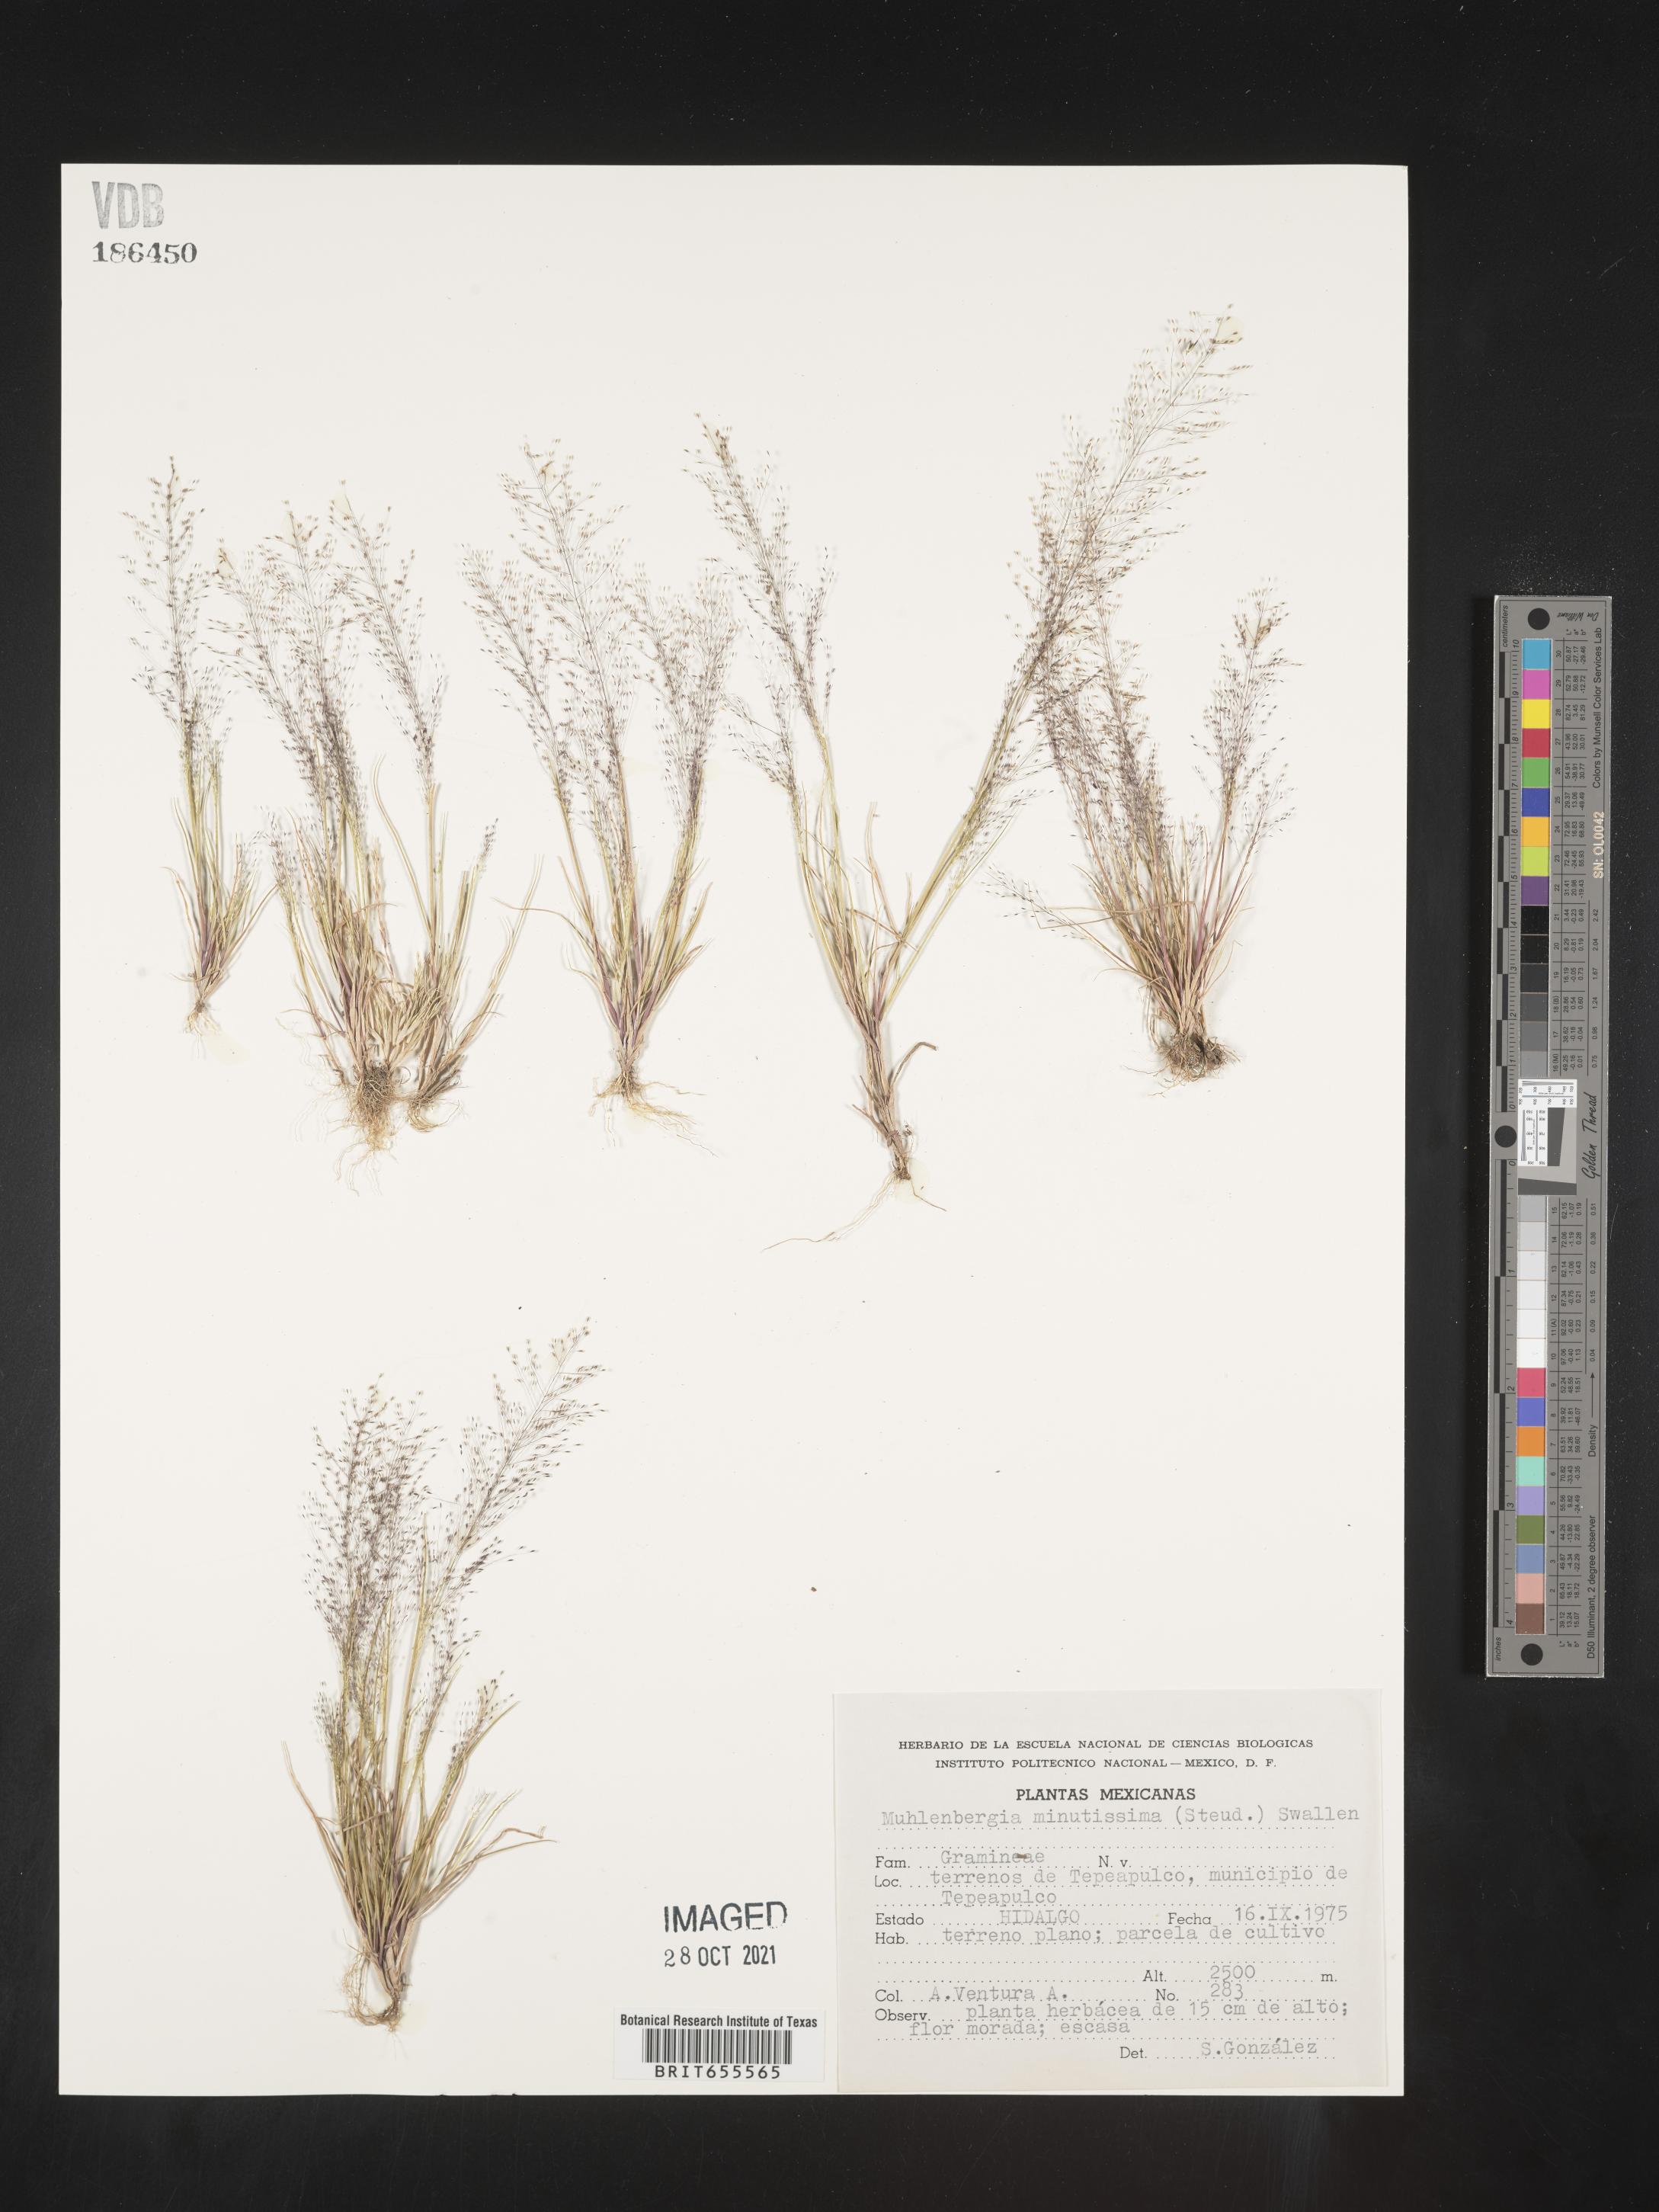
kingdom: Plantae
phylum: Tracheophyta
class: Liliopsida
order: Poales
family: Poaceae
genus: Muhlenbergia
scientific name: Muhlenbergia
